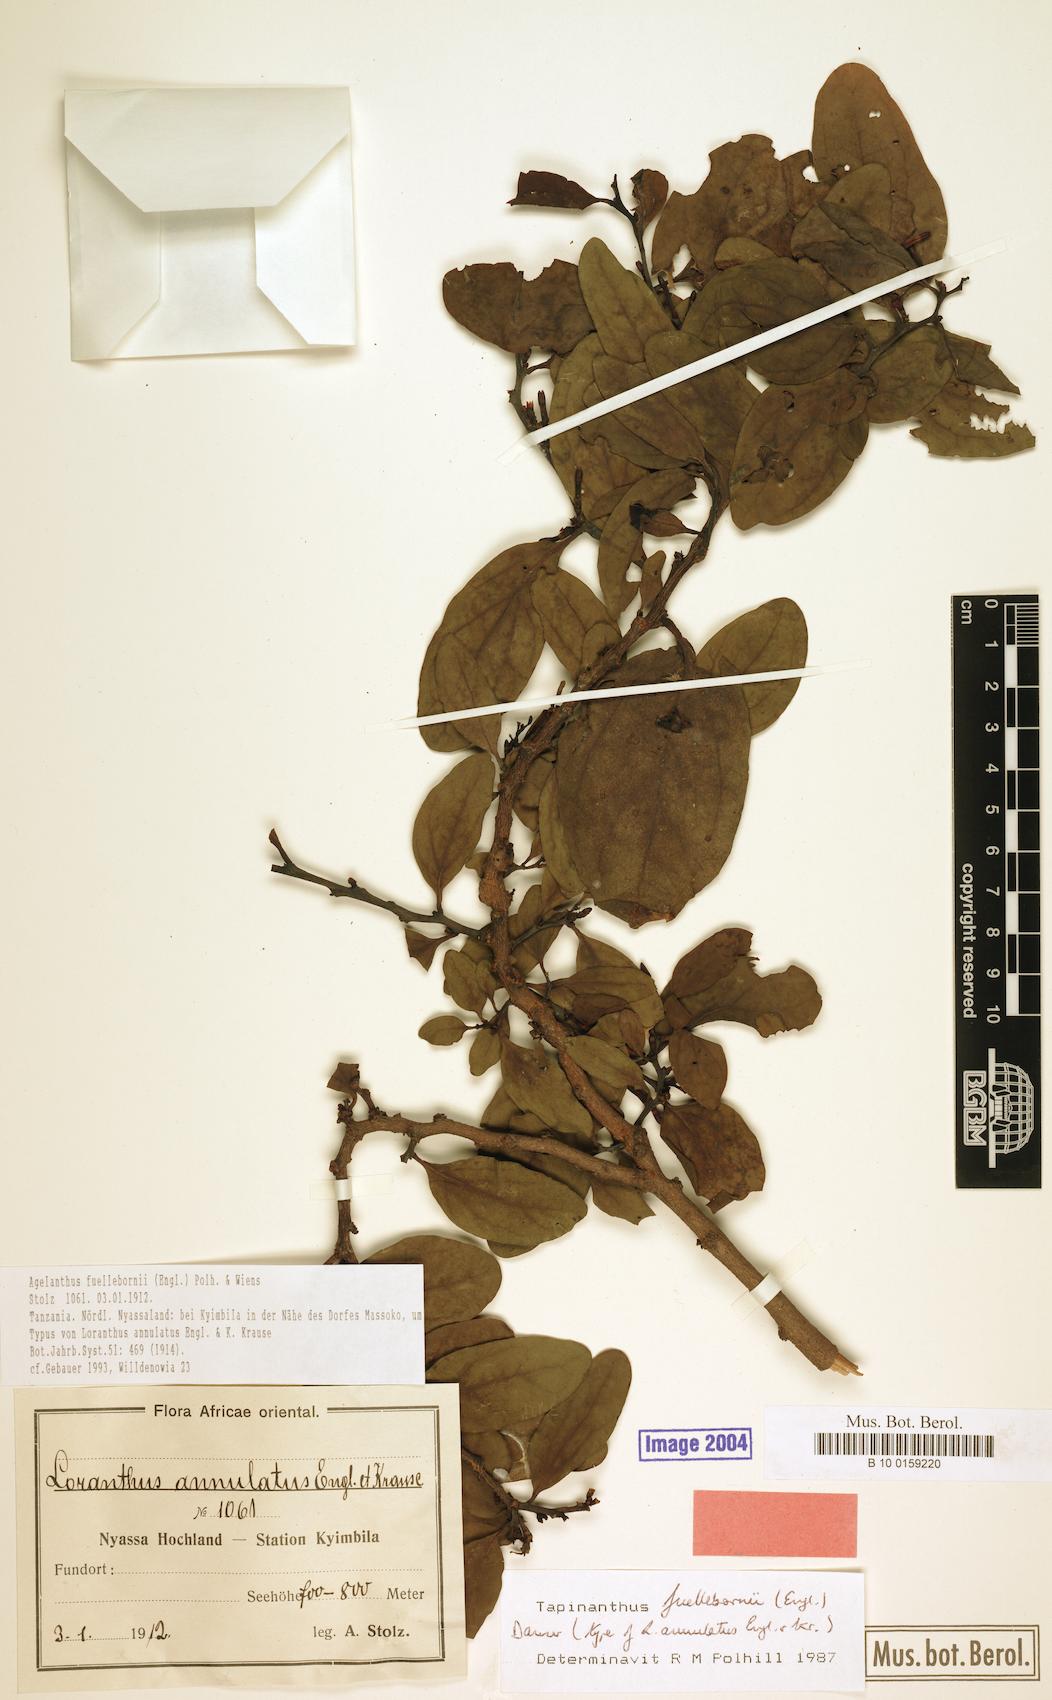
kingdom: Plantae
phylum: Tracheophyta
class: Magnoliopsida
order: Santalales
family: Loranthaceae
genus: Agelanthus
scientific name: Agelanthus fuellebornii
